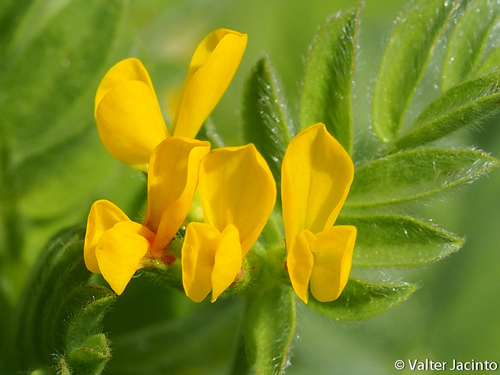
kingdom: Plantae
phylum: Tracheophyta
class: Magnoliopsida
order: Fabales
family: Fabaceae
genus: Ornithopus
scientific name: Ornithopus compressus
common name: Yellow serradella
